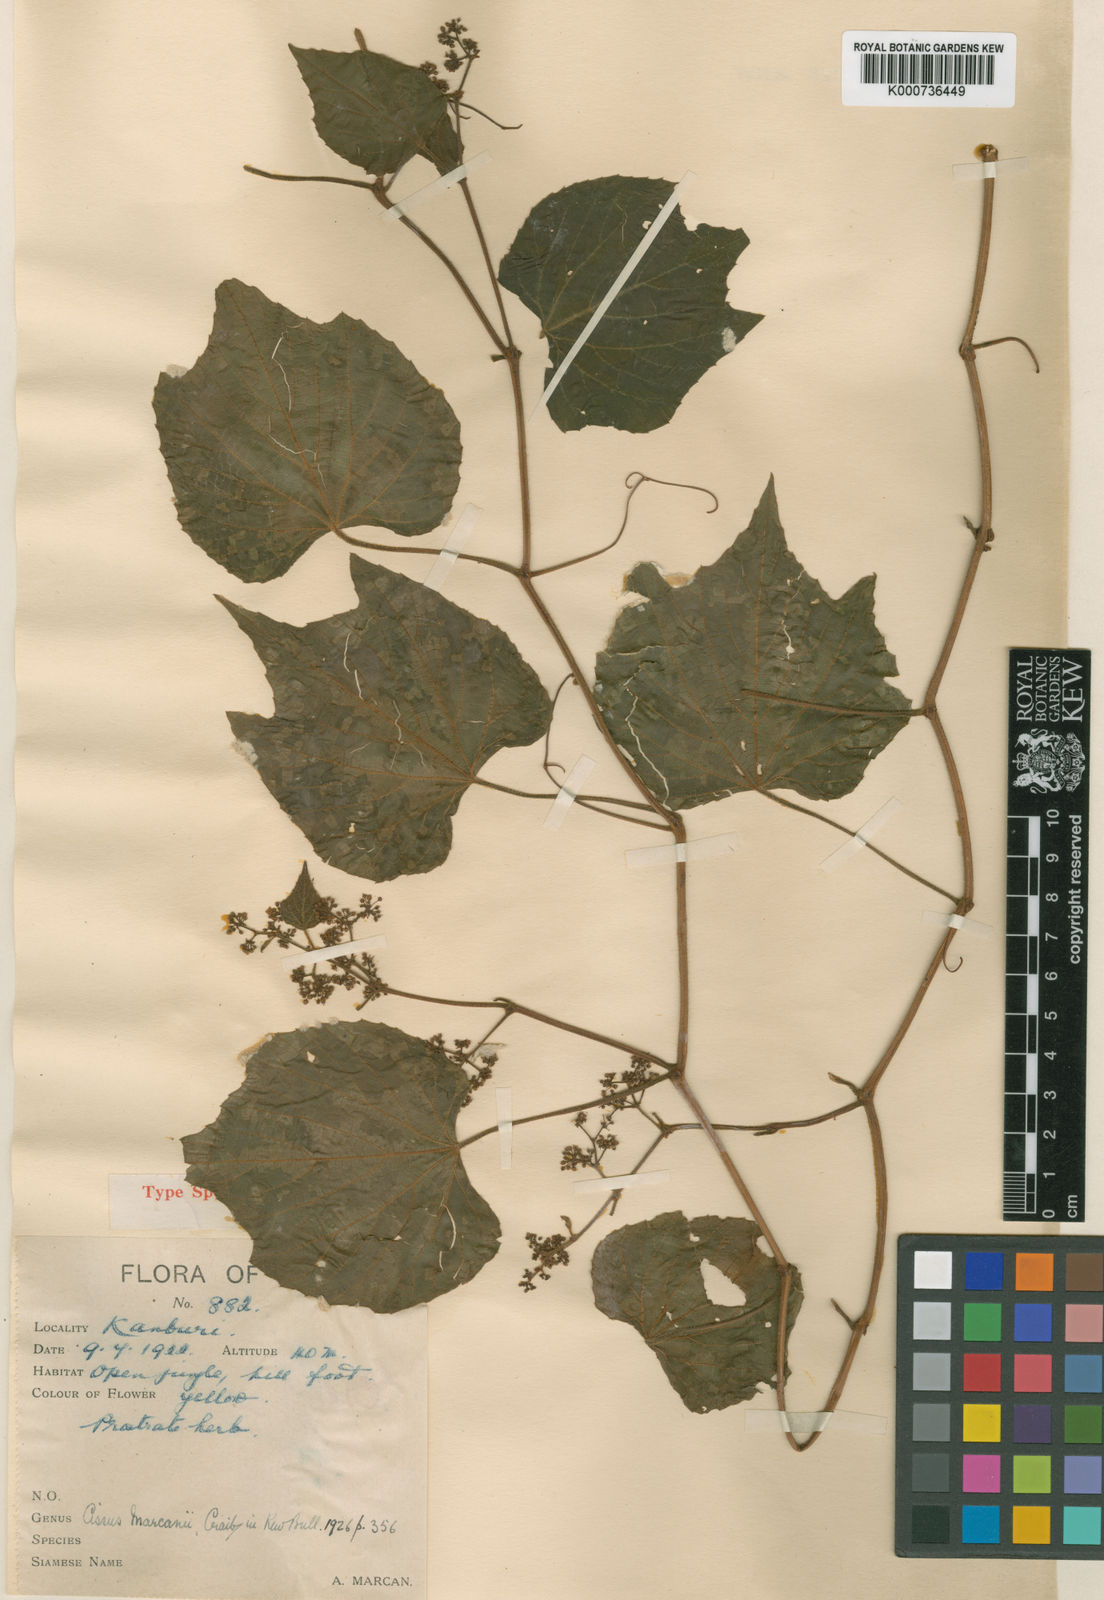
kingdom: Plantae
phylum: Tracheophyta
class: Magnoliopsida
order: Vitales
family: Vitaceae
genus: Cissus
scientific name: Cissus marcanii
